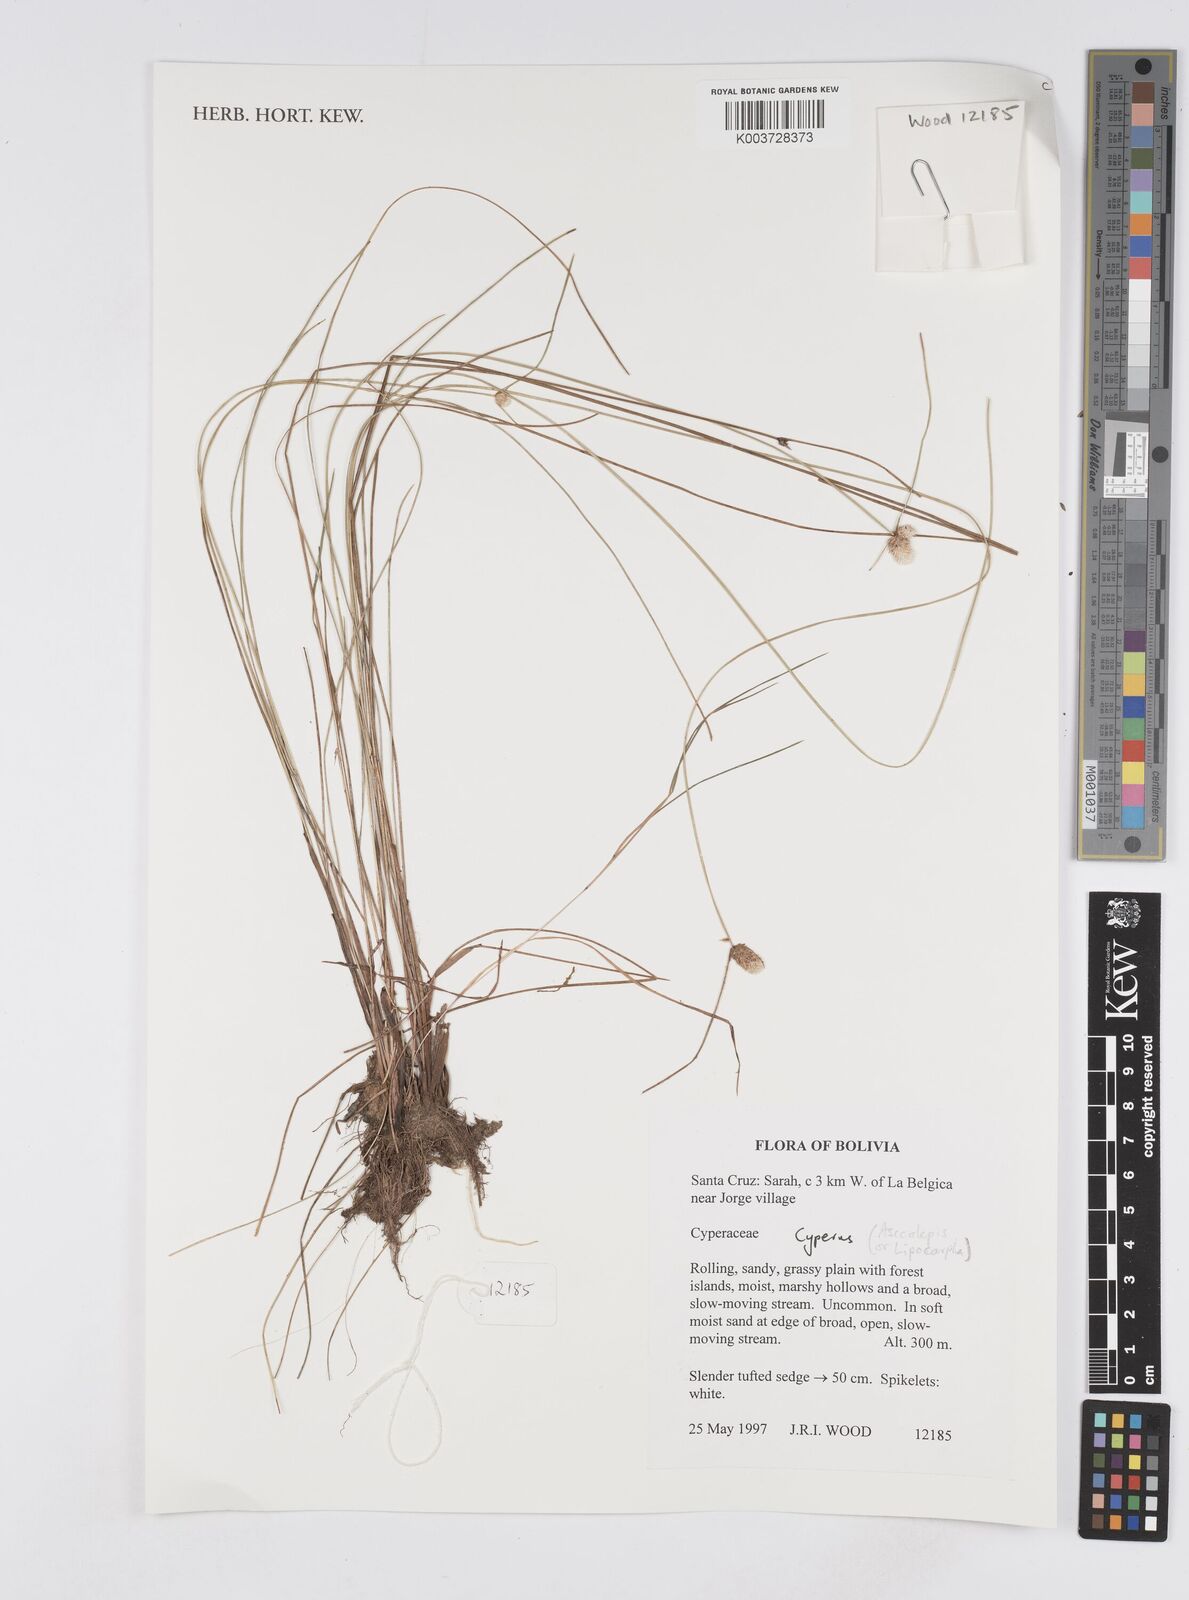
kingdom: Plantae
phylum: Tracheophyta
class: Liliopsida
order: Poales
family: Cyperaceae
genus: Cyperus
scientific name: Cyperus
